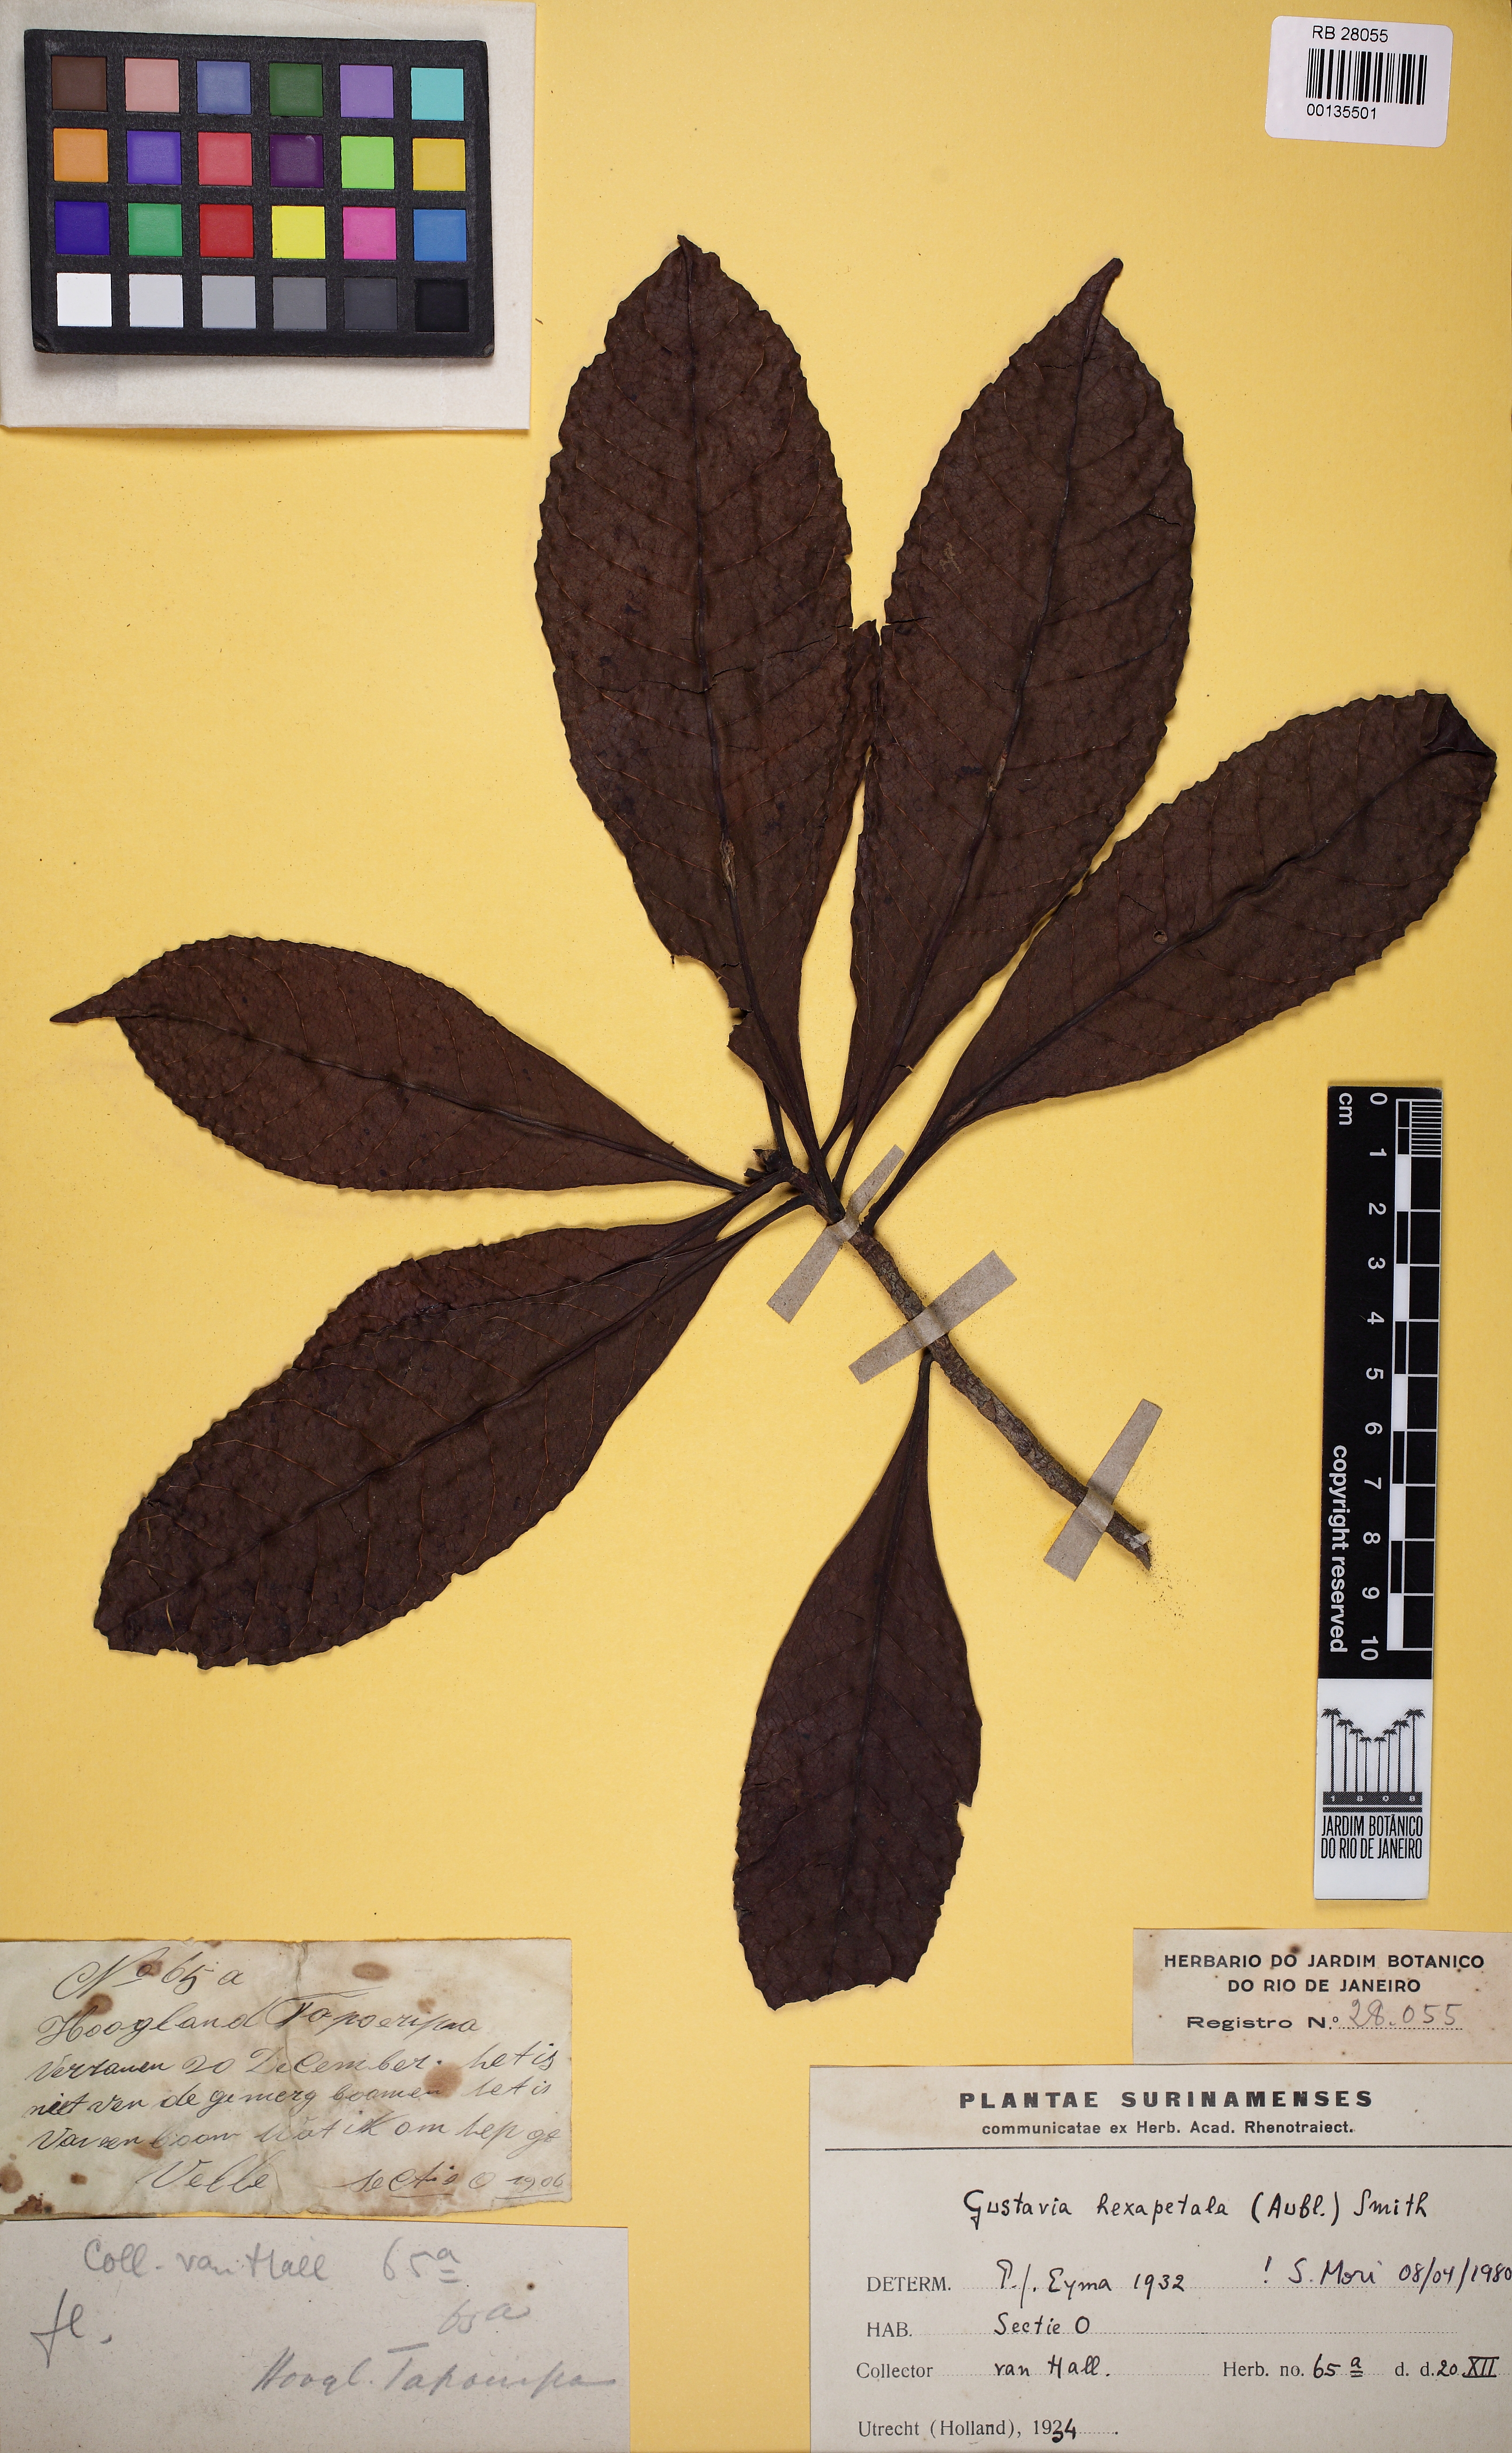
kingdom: Plantae
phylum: Tracheophyta
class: Magnoliopsida
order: Ericales
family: Lecythidaceae
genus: Gustavia
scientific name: Gustavia hexapetala
